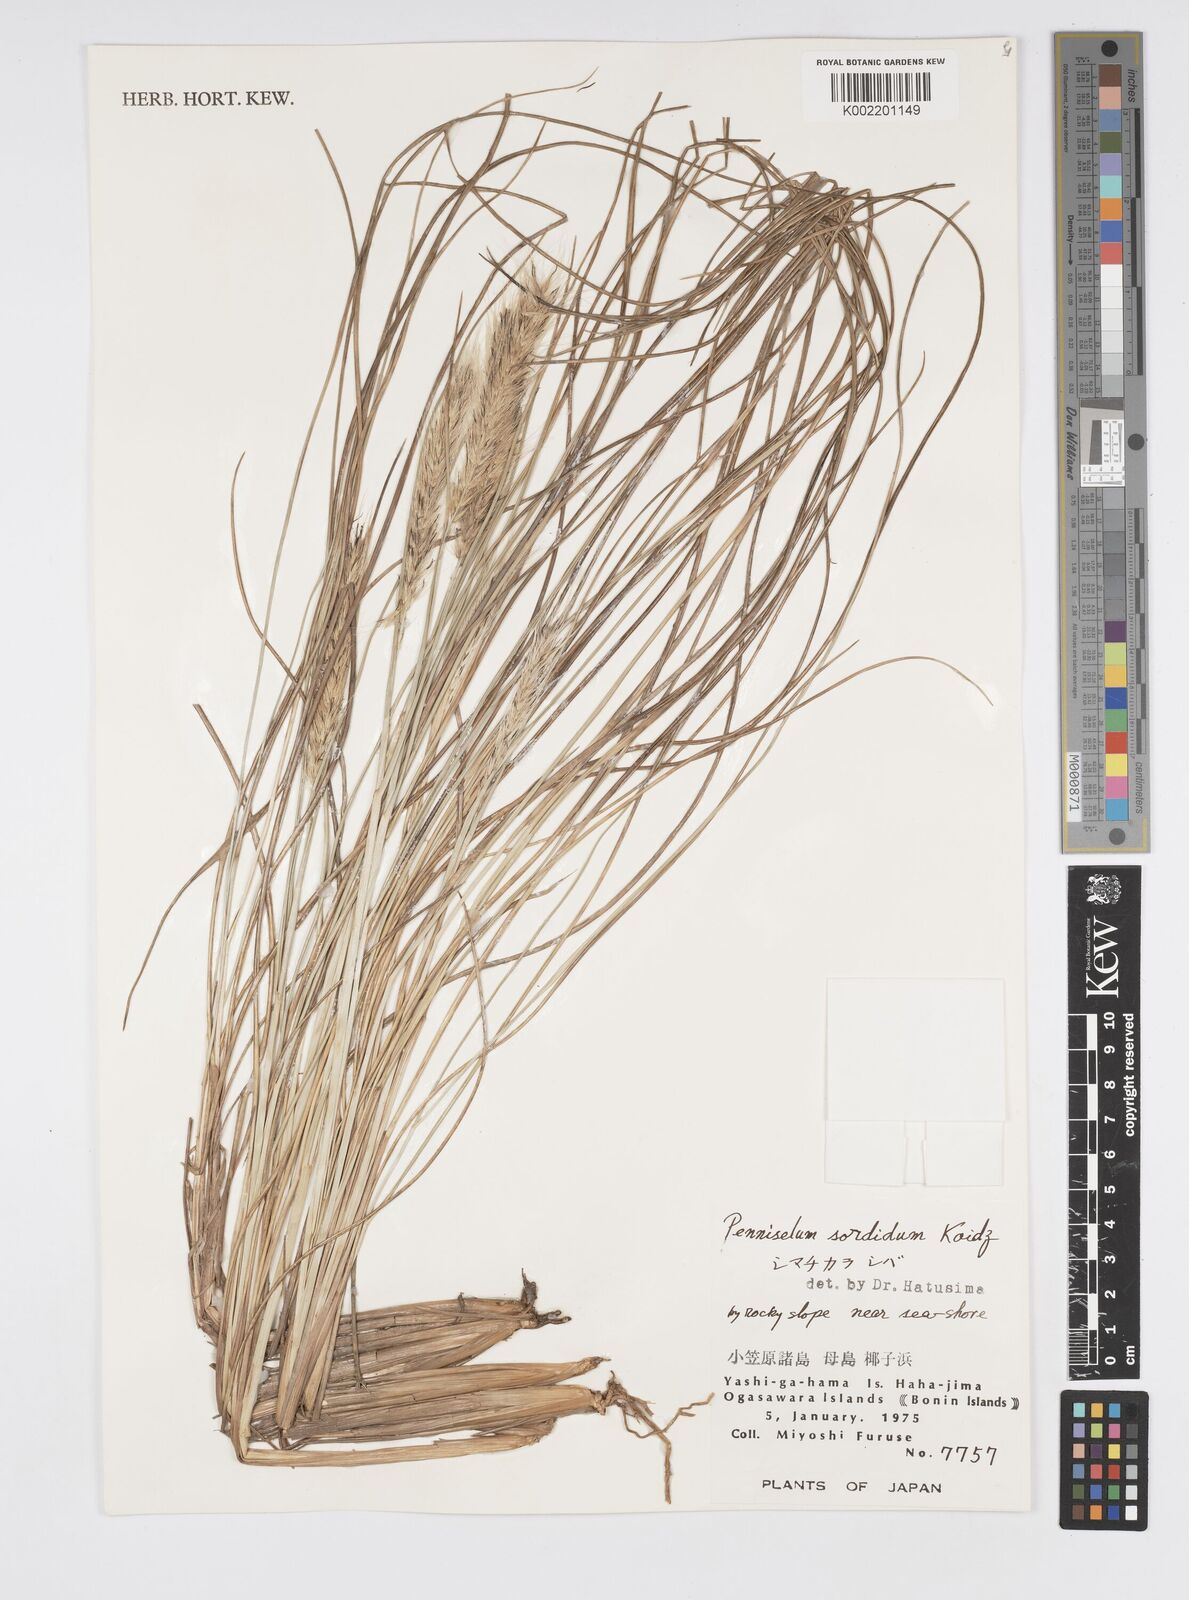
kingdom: Plantae
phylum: Tracheophyta
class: Liliopsida
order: Poales
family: Poaceae
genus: Cenchrus
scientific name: Cenchrus alopecuroides
